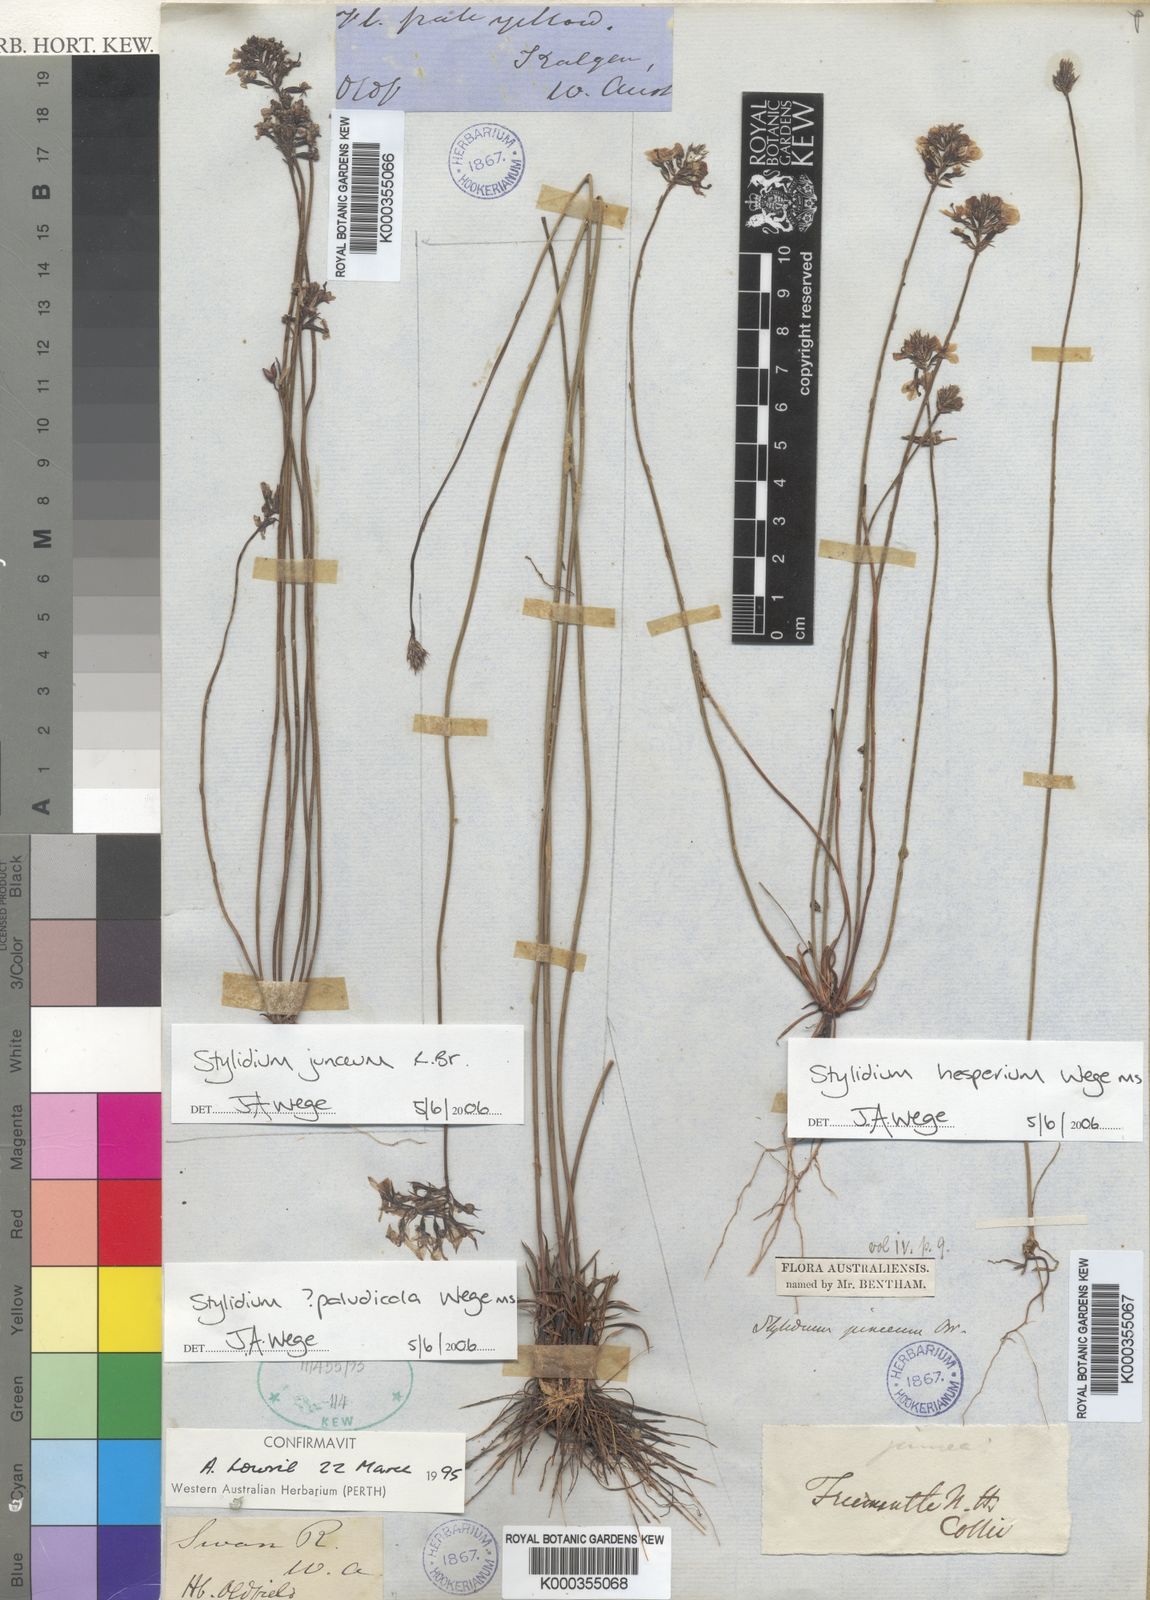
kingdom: Plantae
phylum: Tracheophyta
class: Magnoliopsida
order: Asterales
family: Stylidiaceae
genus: Stylidium
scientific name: Stylidium paludicola
